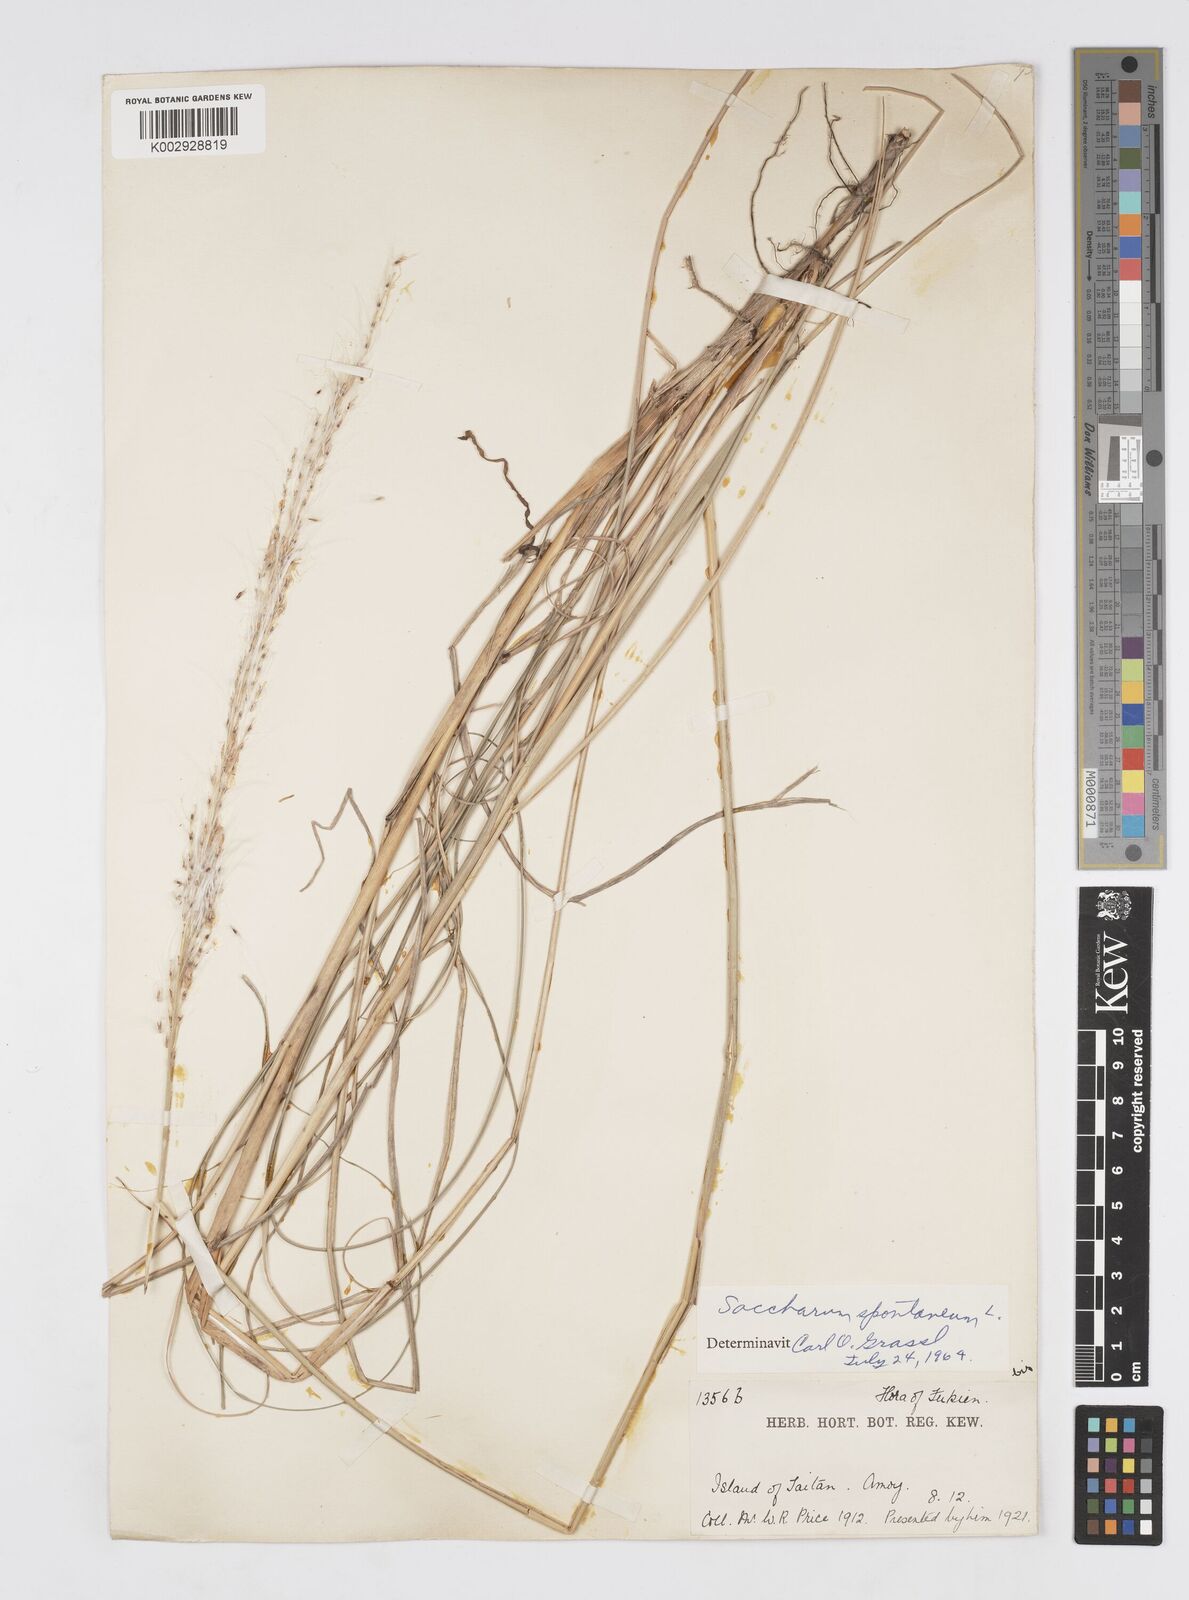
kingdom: Plantae
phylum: Tracheophyta
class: Liliopsida
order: Poales
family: Poaceae
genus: Saccharum
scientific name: Saccharum spontaneum
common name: Wild sugarcane
